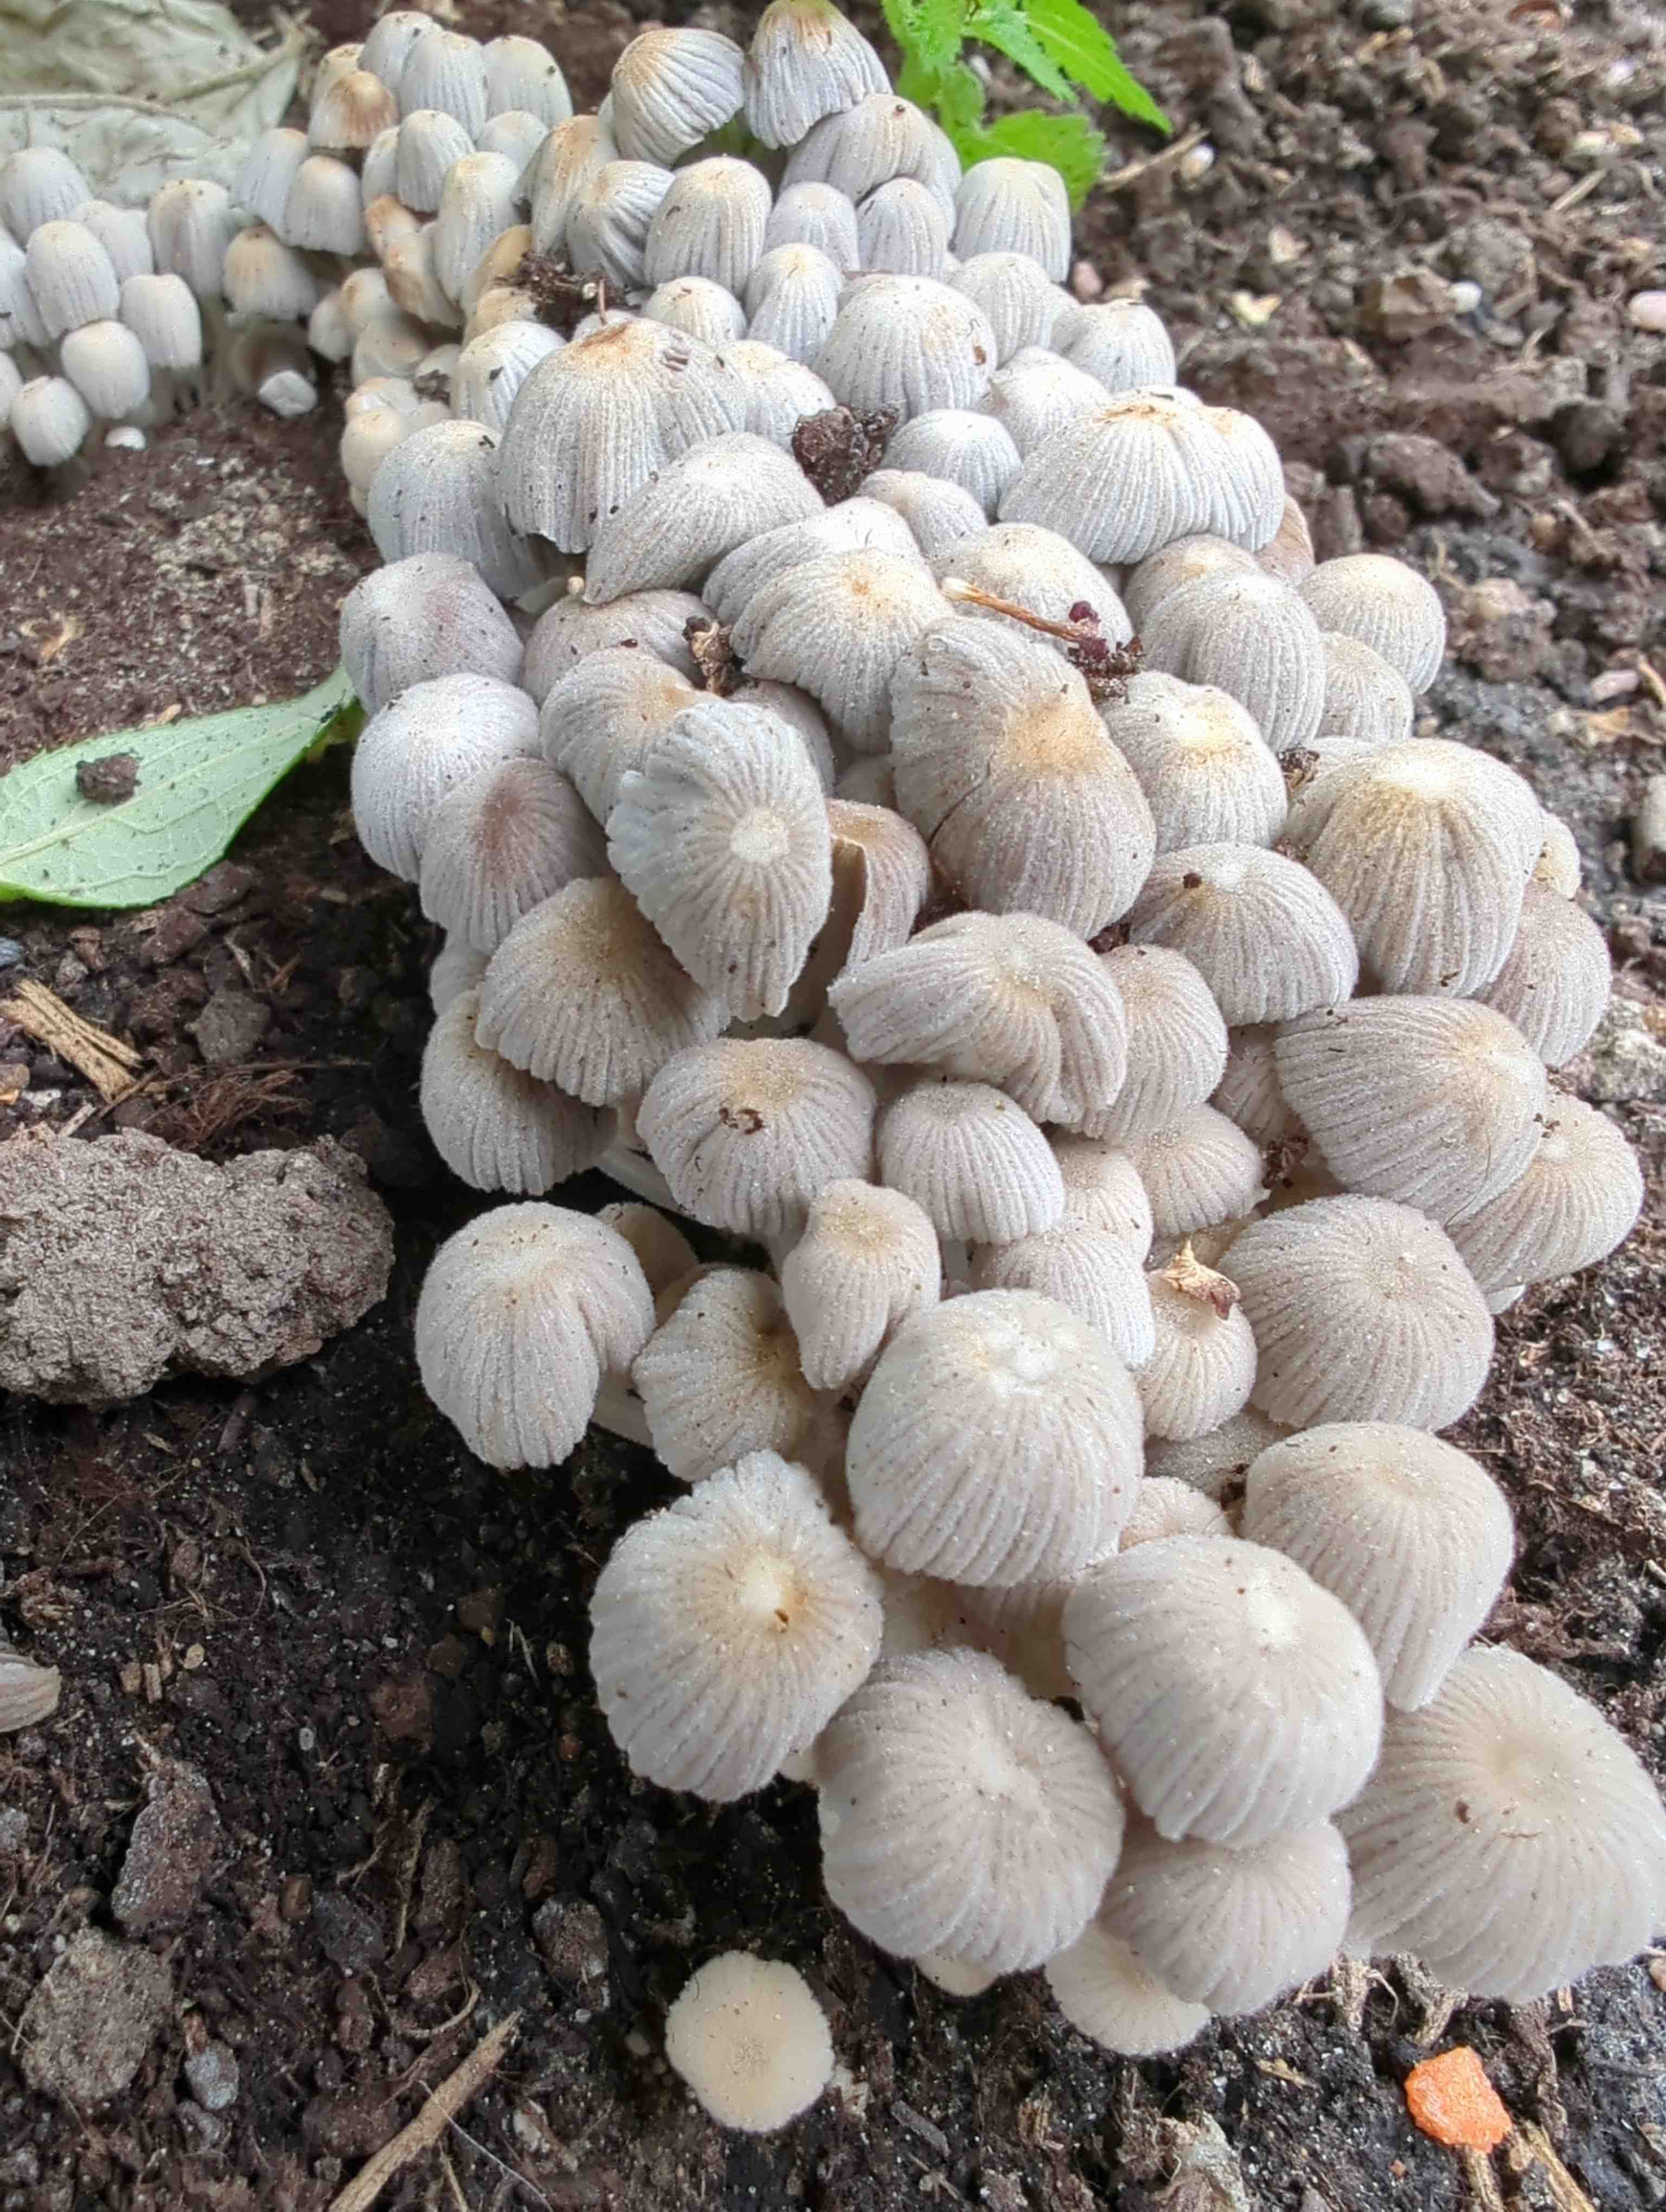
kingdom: Fungi
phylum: Basidiomycota
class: Agaricomycetes
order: Agaricales
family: Psathyrellaceae
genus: Coprinellus
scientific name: Coprinellus disseminatus
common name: bredsået blækhat
